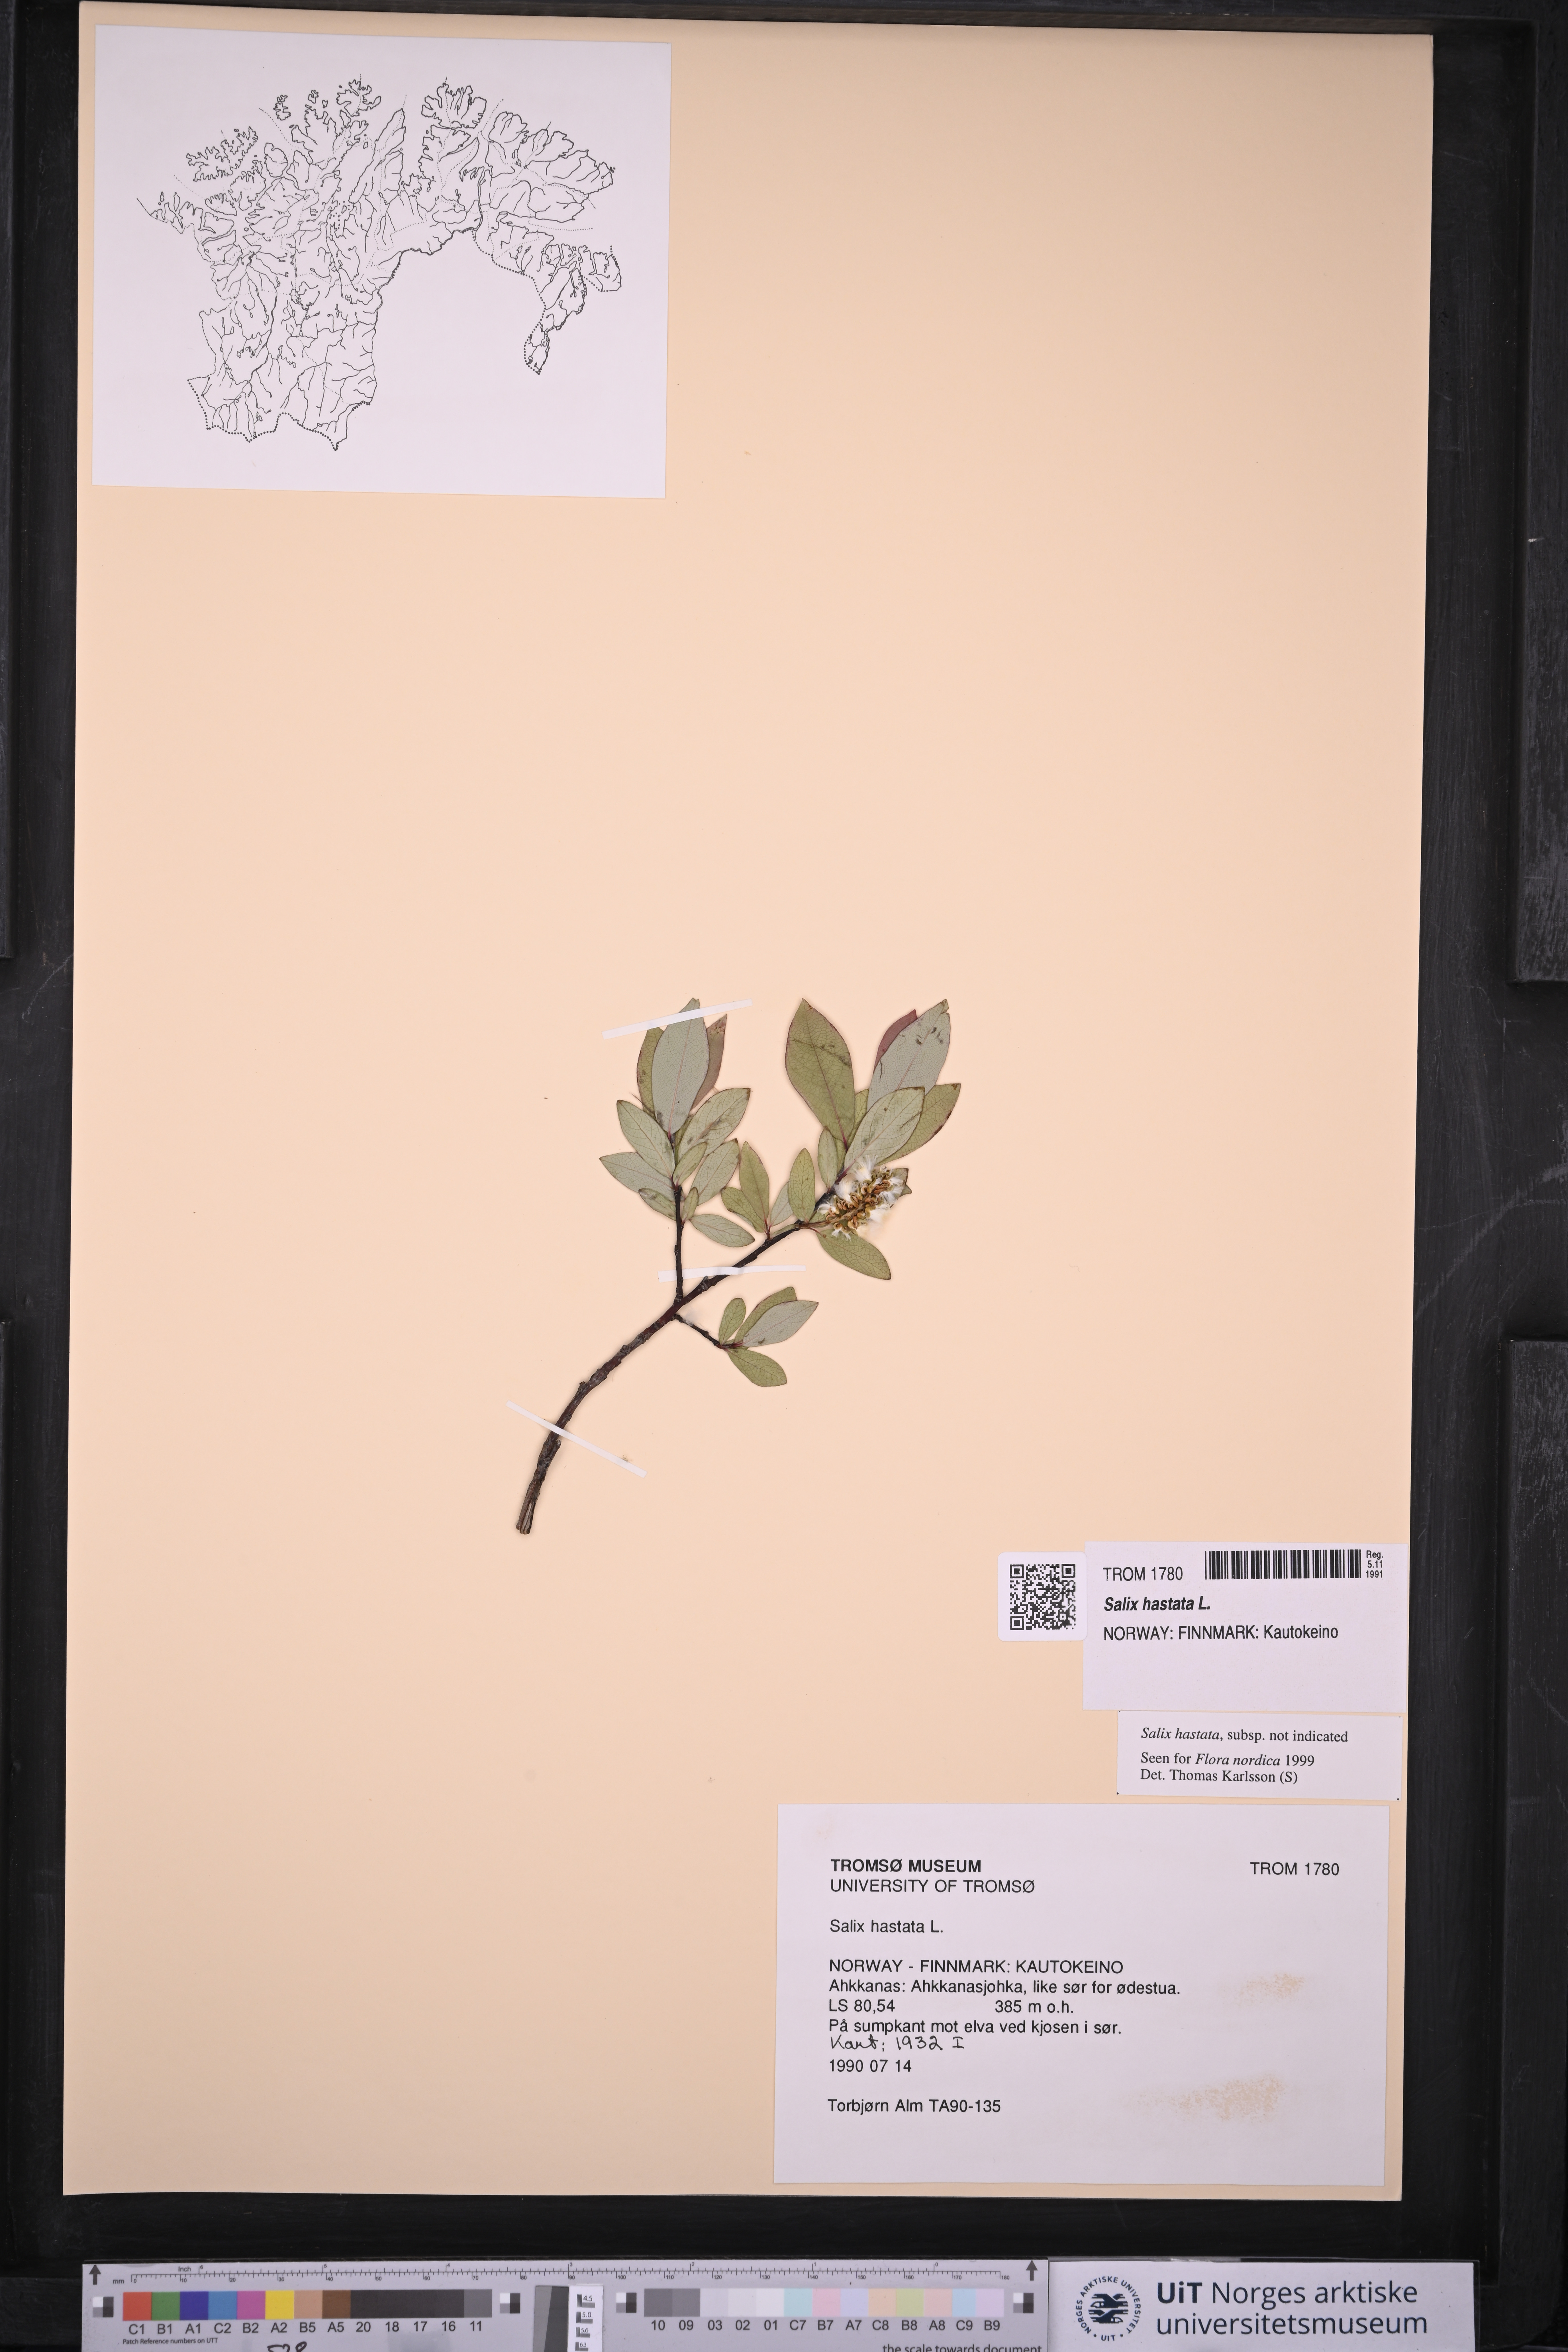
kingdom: Plantae
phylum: Tracheophyta
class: Magnoliopsida
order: Malpighiales
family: Salicaceae
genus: Salix
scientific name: Salix hastata
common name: Halberd willow
